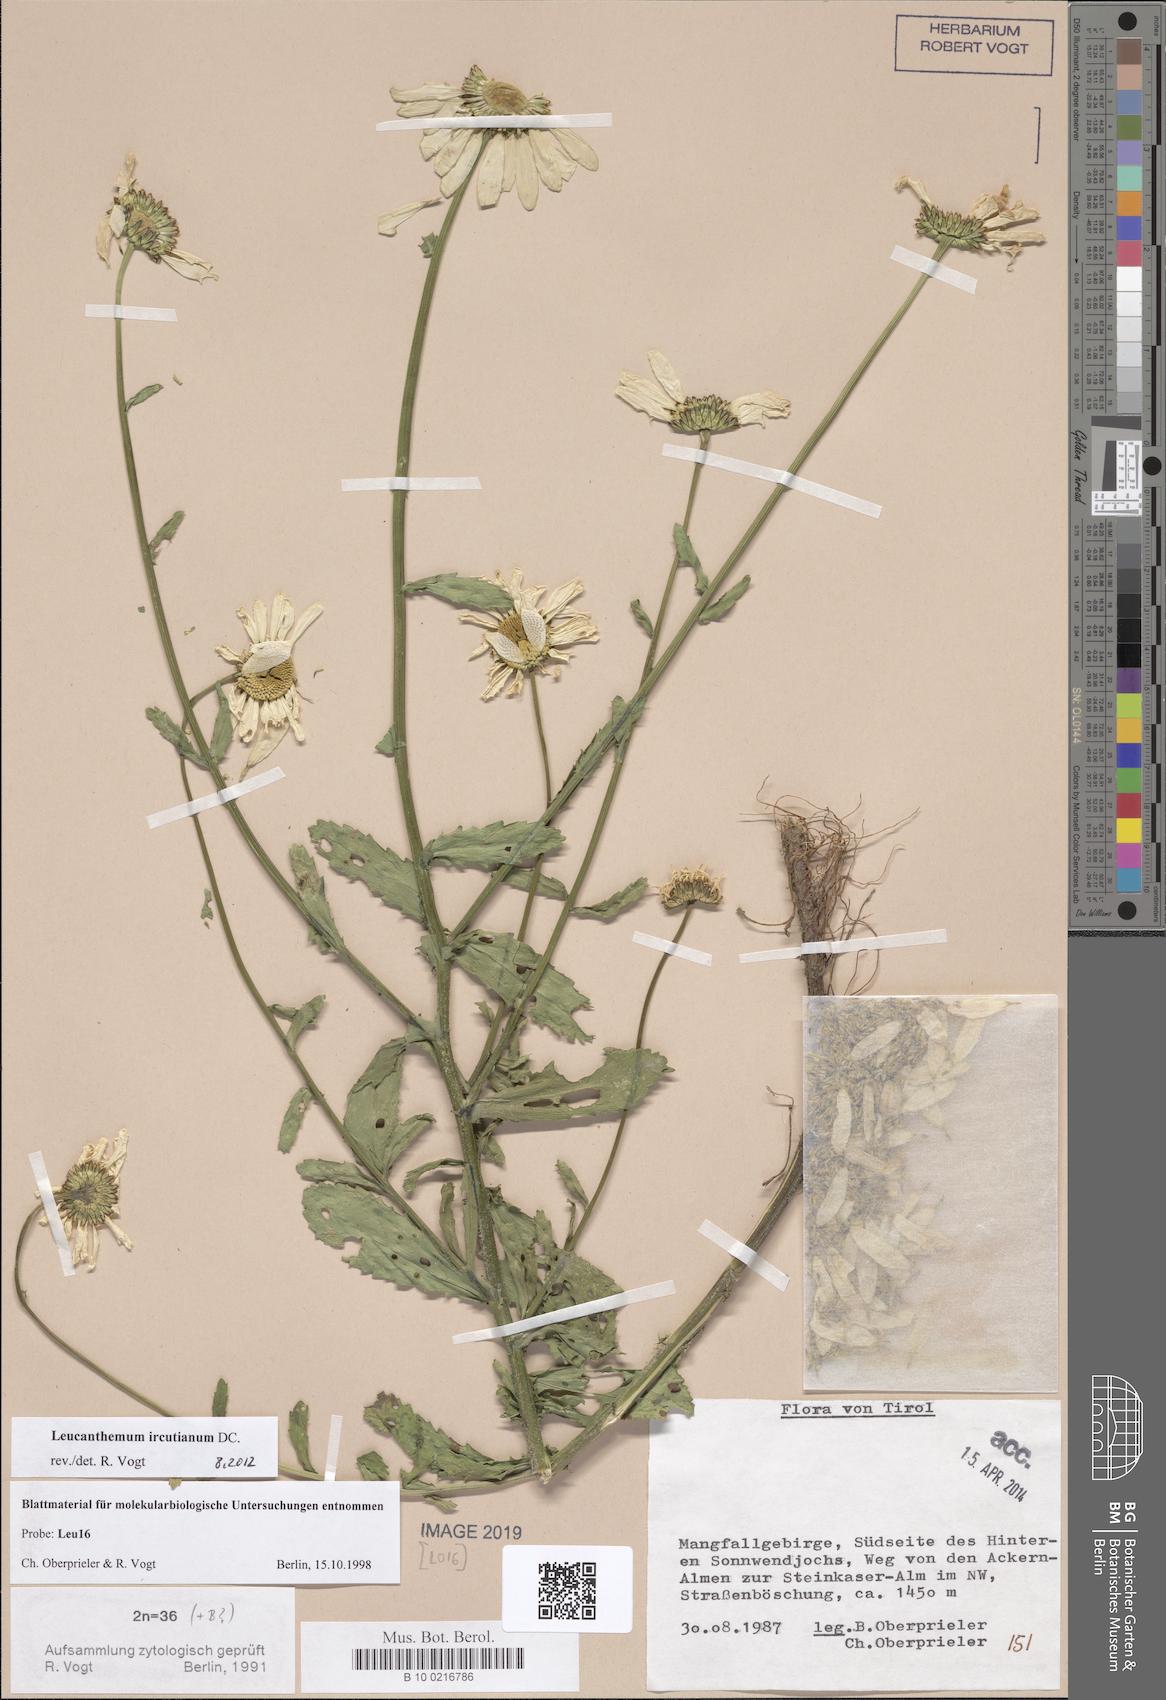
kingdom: Plantae
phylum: Tracheophyta
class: Magnoliopsida
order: Asterales
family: Asteraceae
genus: Leucanthemum
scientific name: Leucanthemum ircutianum
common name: Daisy
